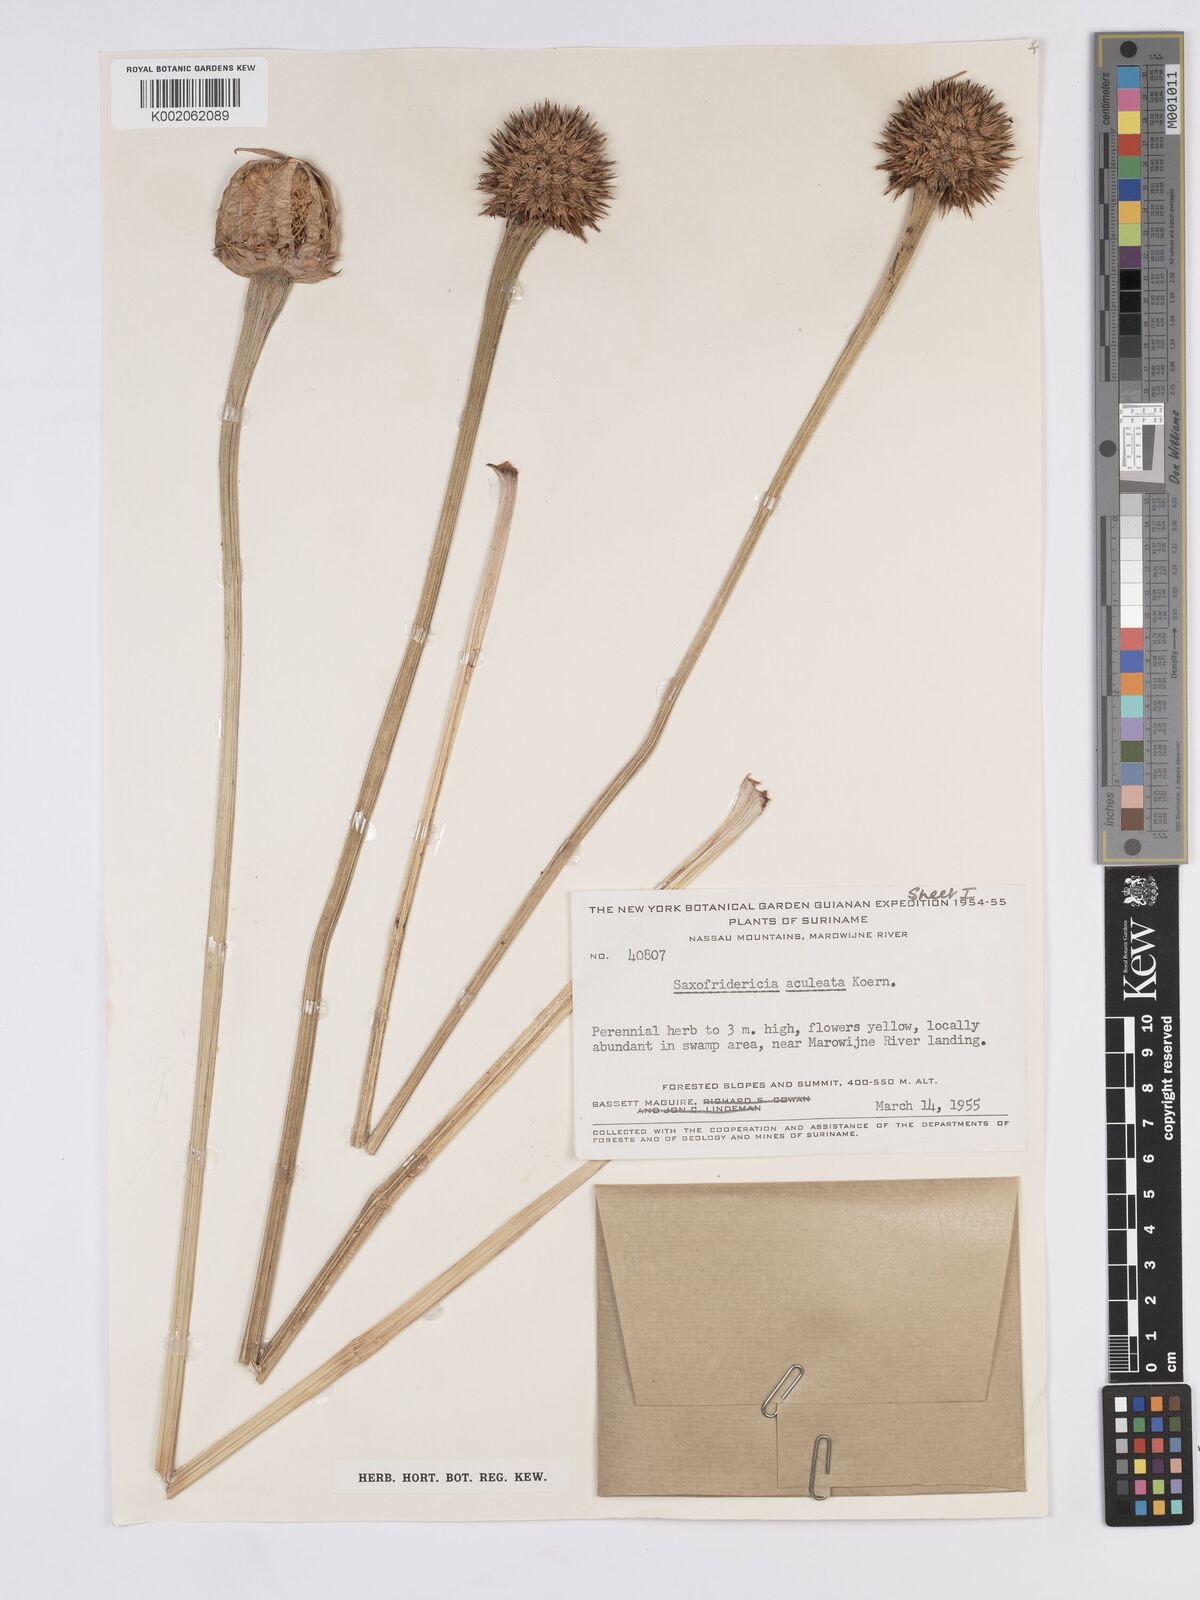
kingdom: Plantae
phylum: Tracheophyta
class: Liliopsida
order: Poales
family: Rapateaceae
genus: Saxofridericia
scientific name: Saxofridericia aculeata
